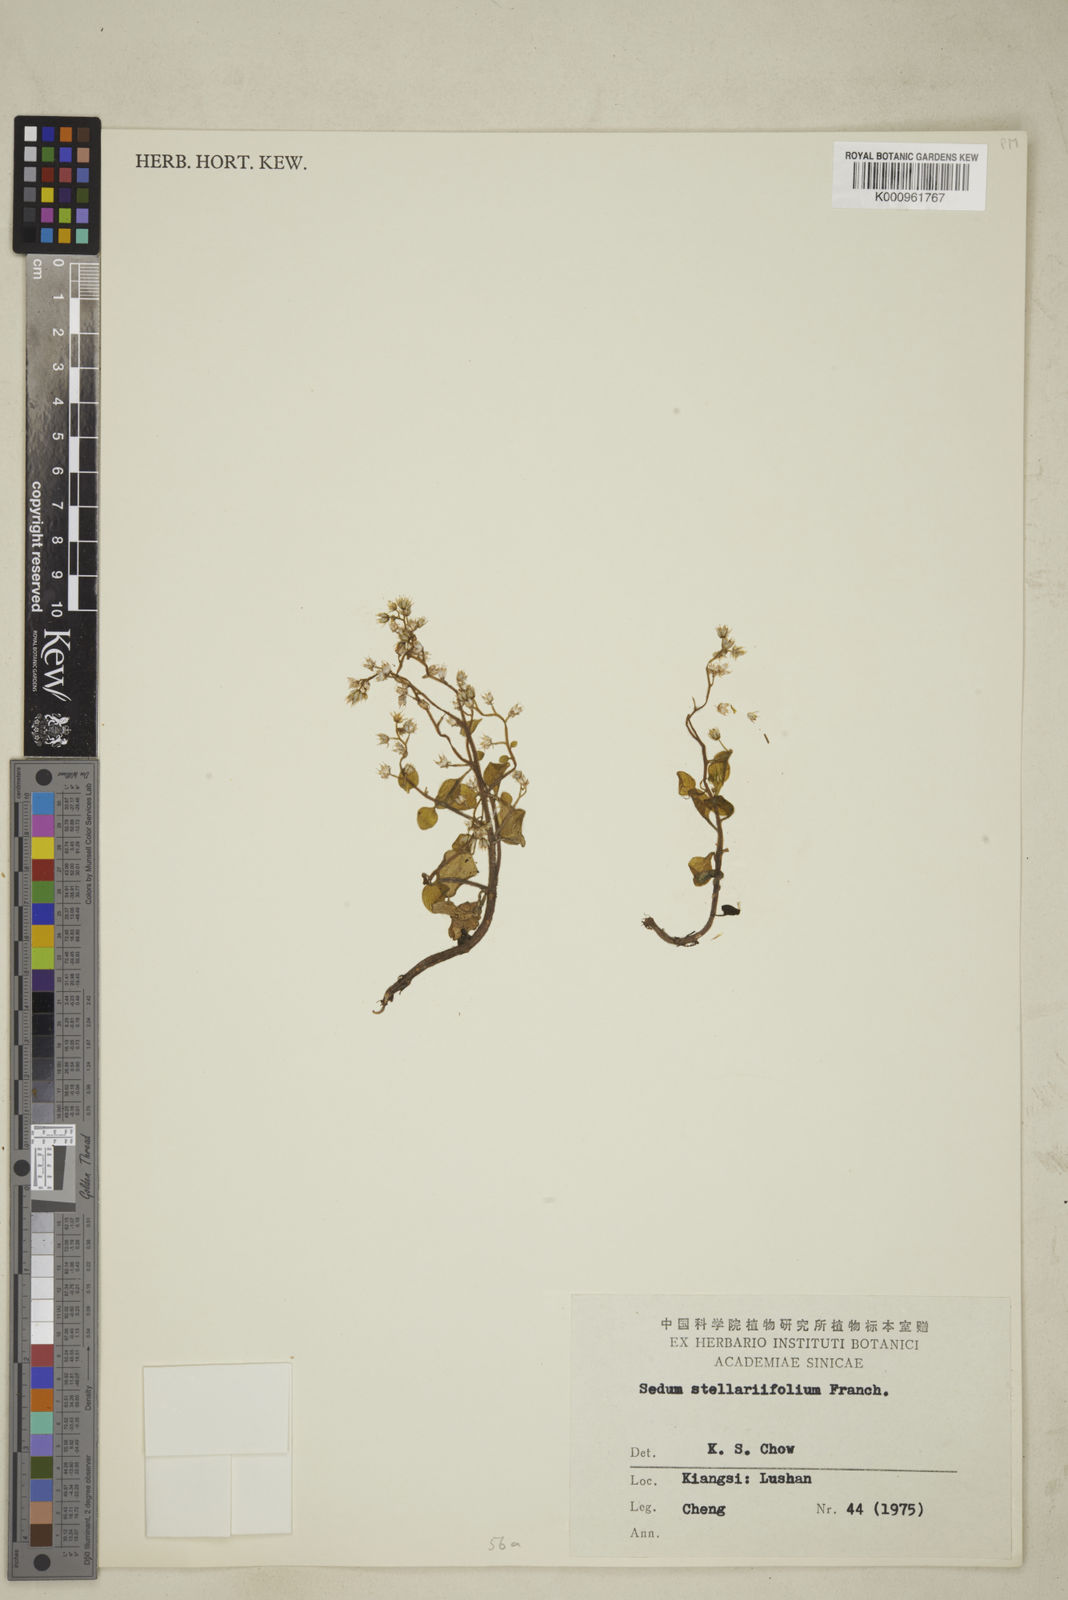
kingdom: Plantae
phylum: Tracheophyta
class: Magnoliopsida
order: Saxifragales
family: Crassulaceae
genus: Sedum
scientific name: Sedum drymarioides
